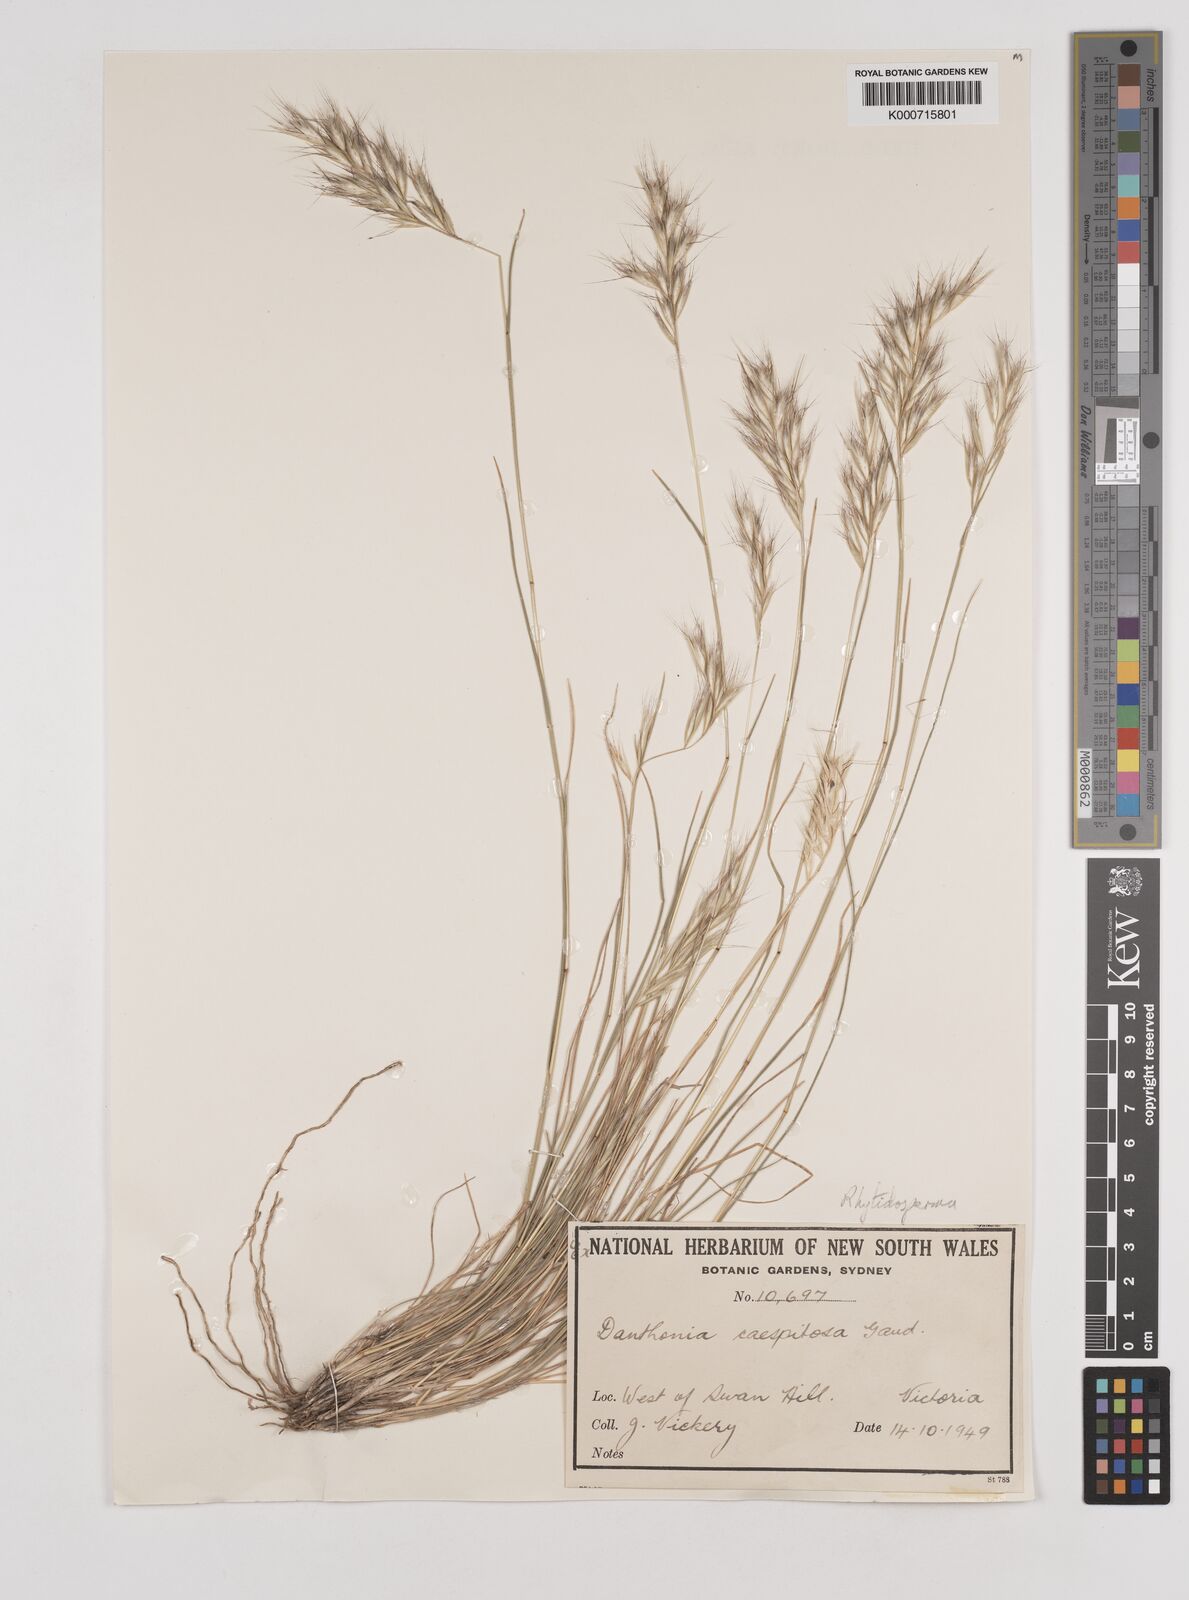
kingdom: Plantae
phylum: Tracheophyta
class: Liliopsida
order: Poales
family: Poaceae
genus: Rytidosperma
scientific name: Rytidosperma caespitosum
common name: Tufted wallaby grass
